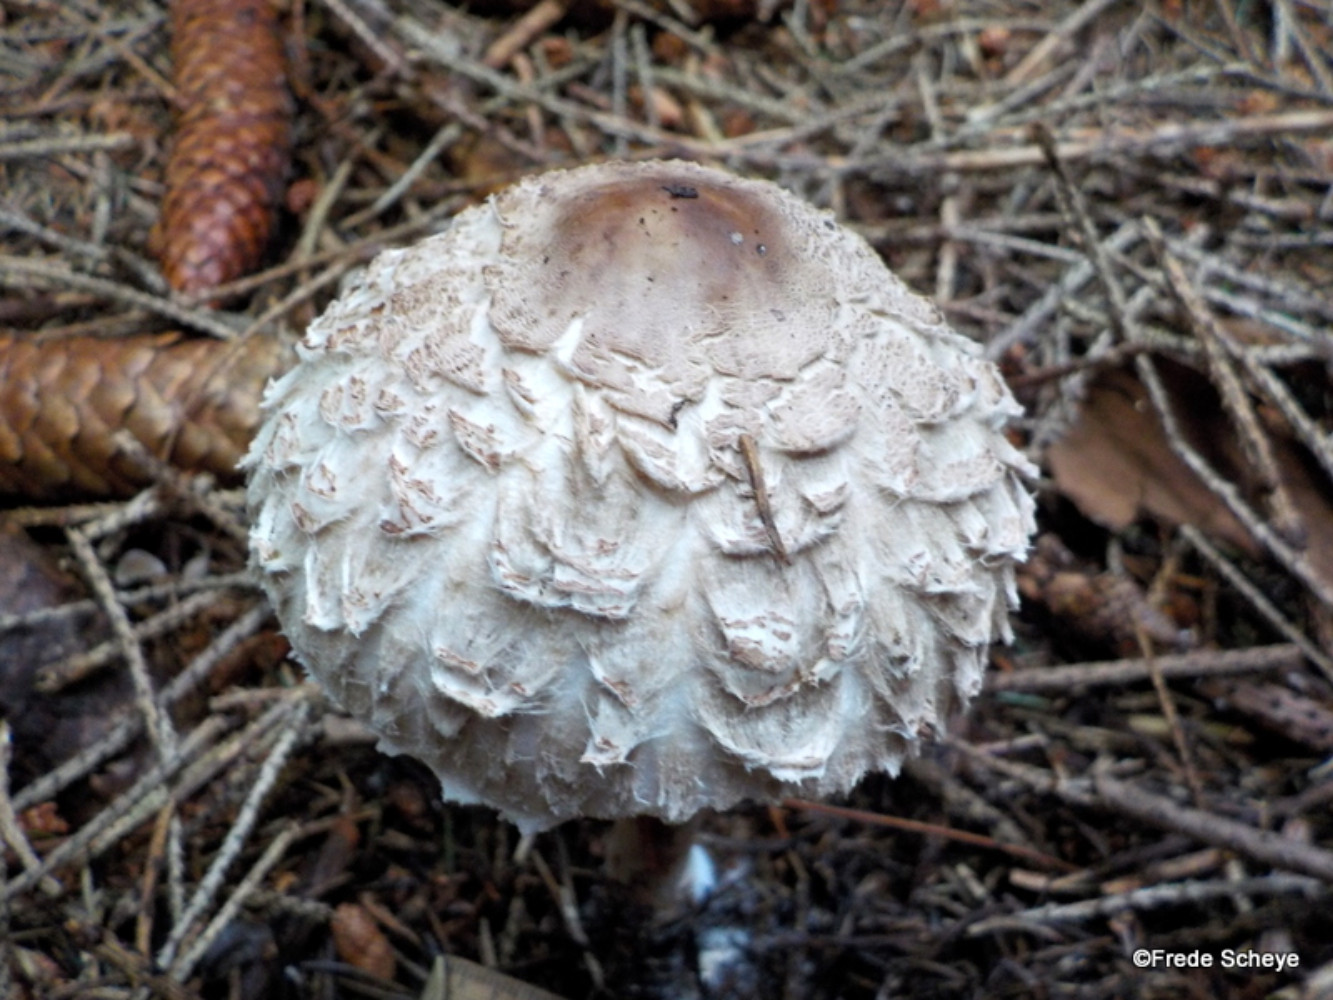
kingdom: Fungi
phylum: Basidiomycota
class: Agaricomycetes
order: Agaricales
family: Agaricaceae
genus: Chlorophyllum
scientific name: Chlorophyllum olivieri
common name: almindelig rabarberhat
